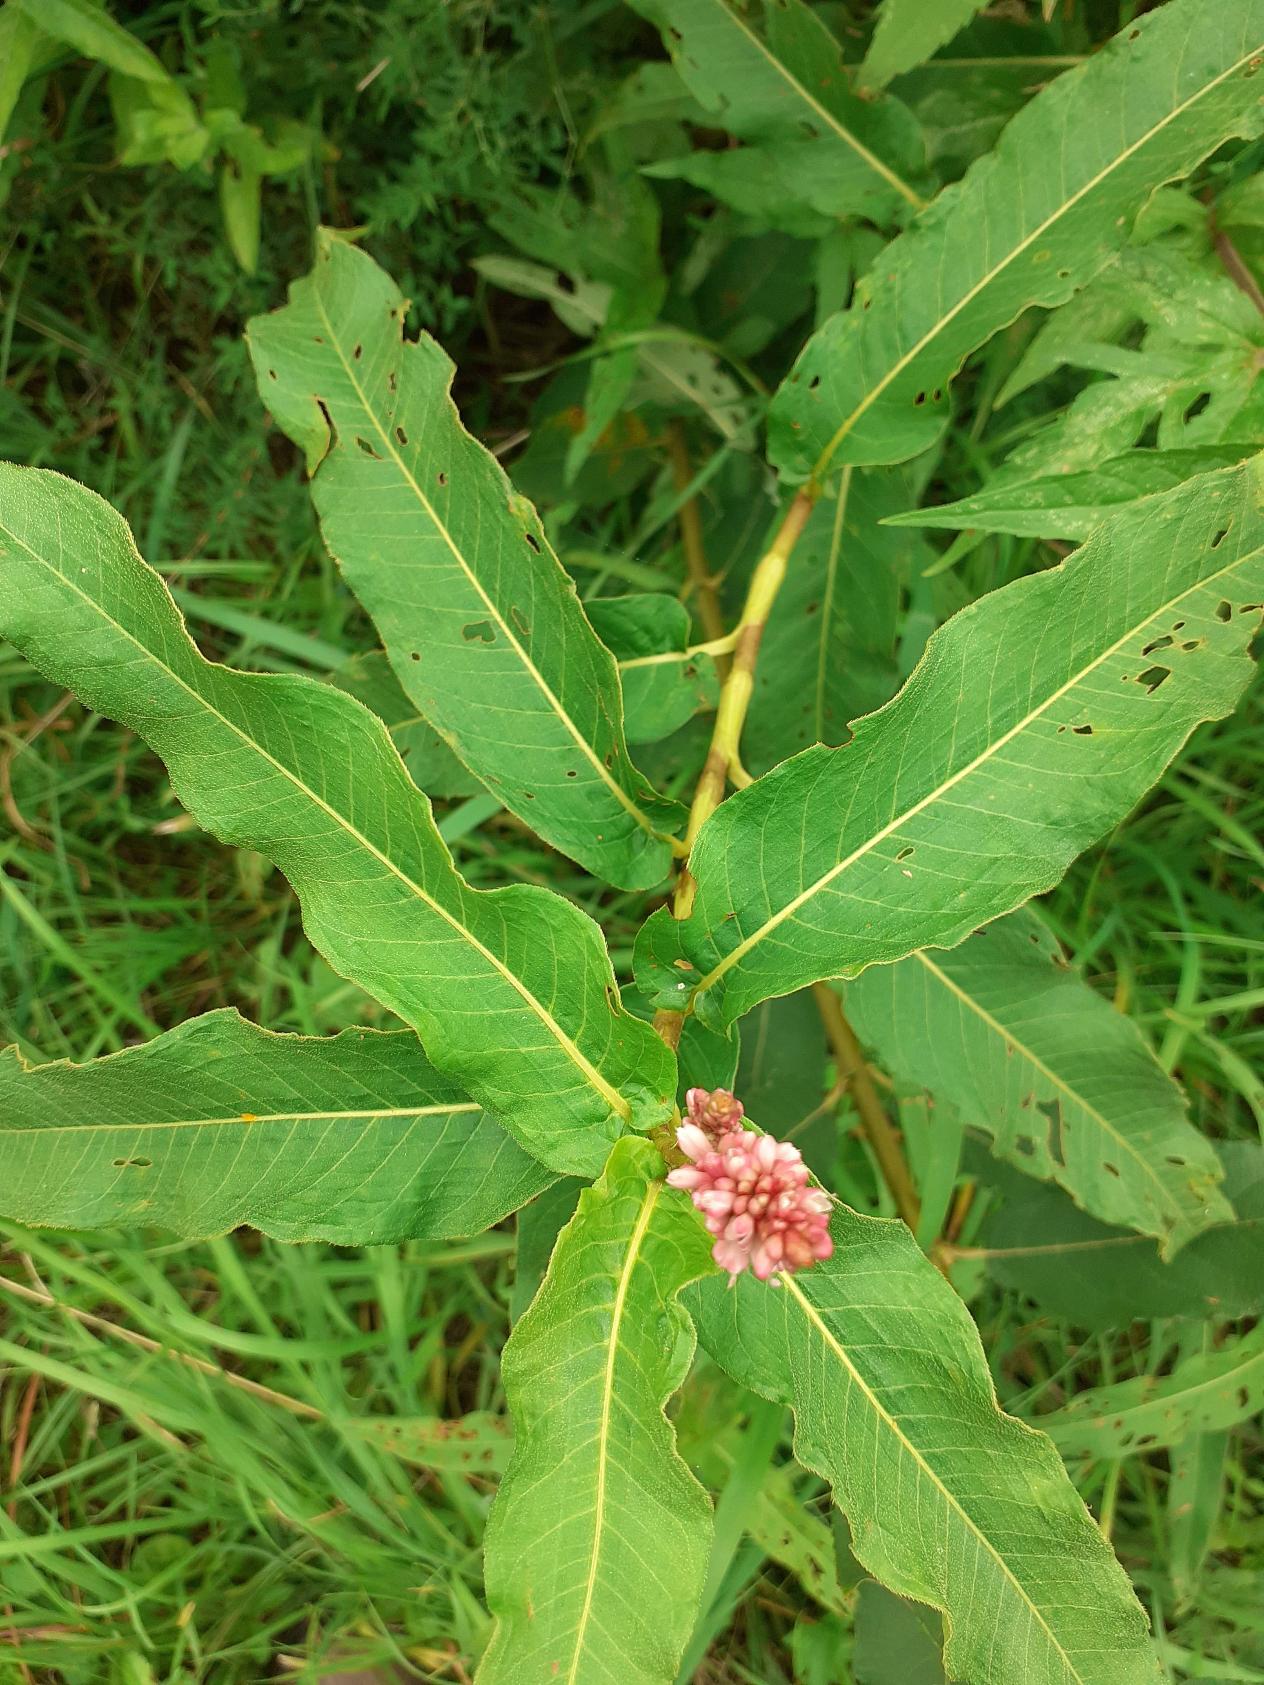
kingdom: Plantae
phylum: Tracheophyta
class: Magnoliopsida
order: Caryophyllales
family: Polygonaceae
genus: Persicaria
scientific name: Persicaria amphibia
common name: Vand-pileurt
